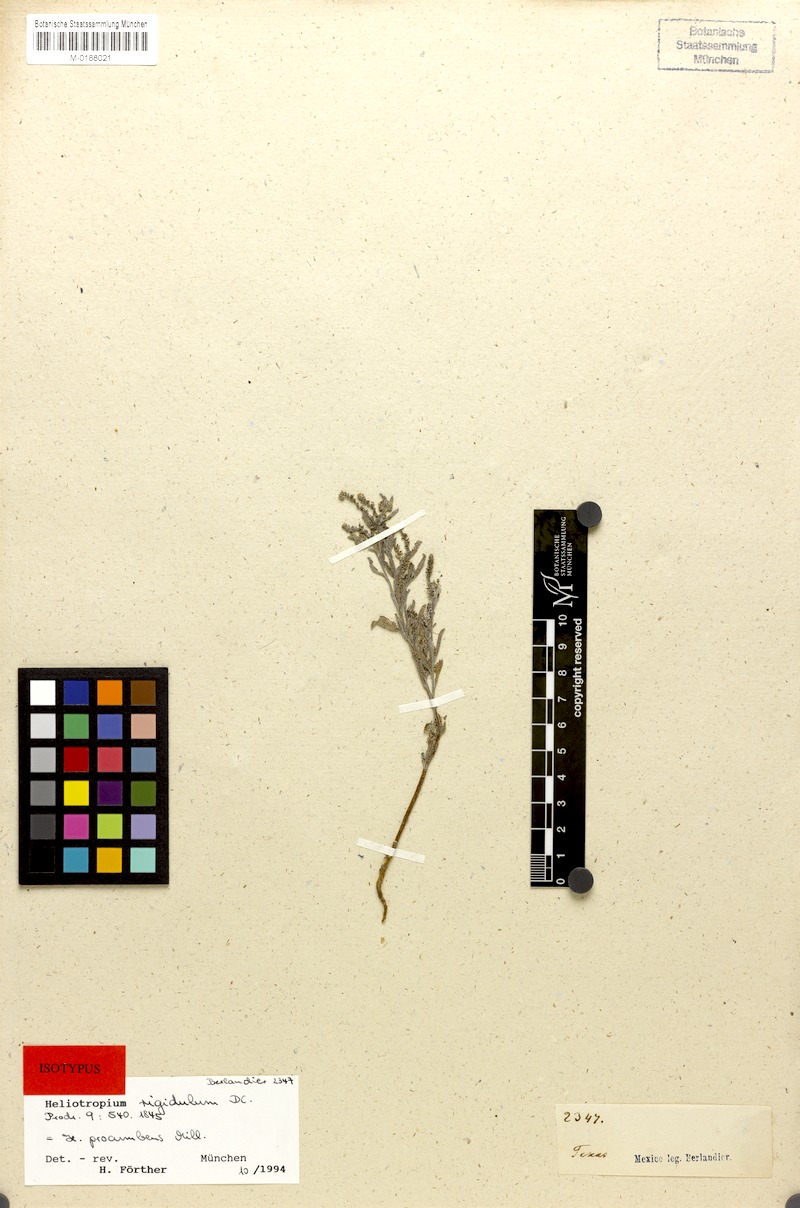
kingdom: Plantae
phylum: Tracheophyta
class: Magnoliopsida
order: Boraginales
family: Heliotropiaceae
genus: Euploca
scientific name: Euploca procumbens
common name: Fourspike heliotrope
